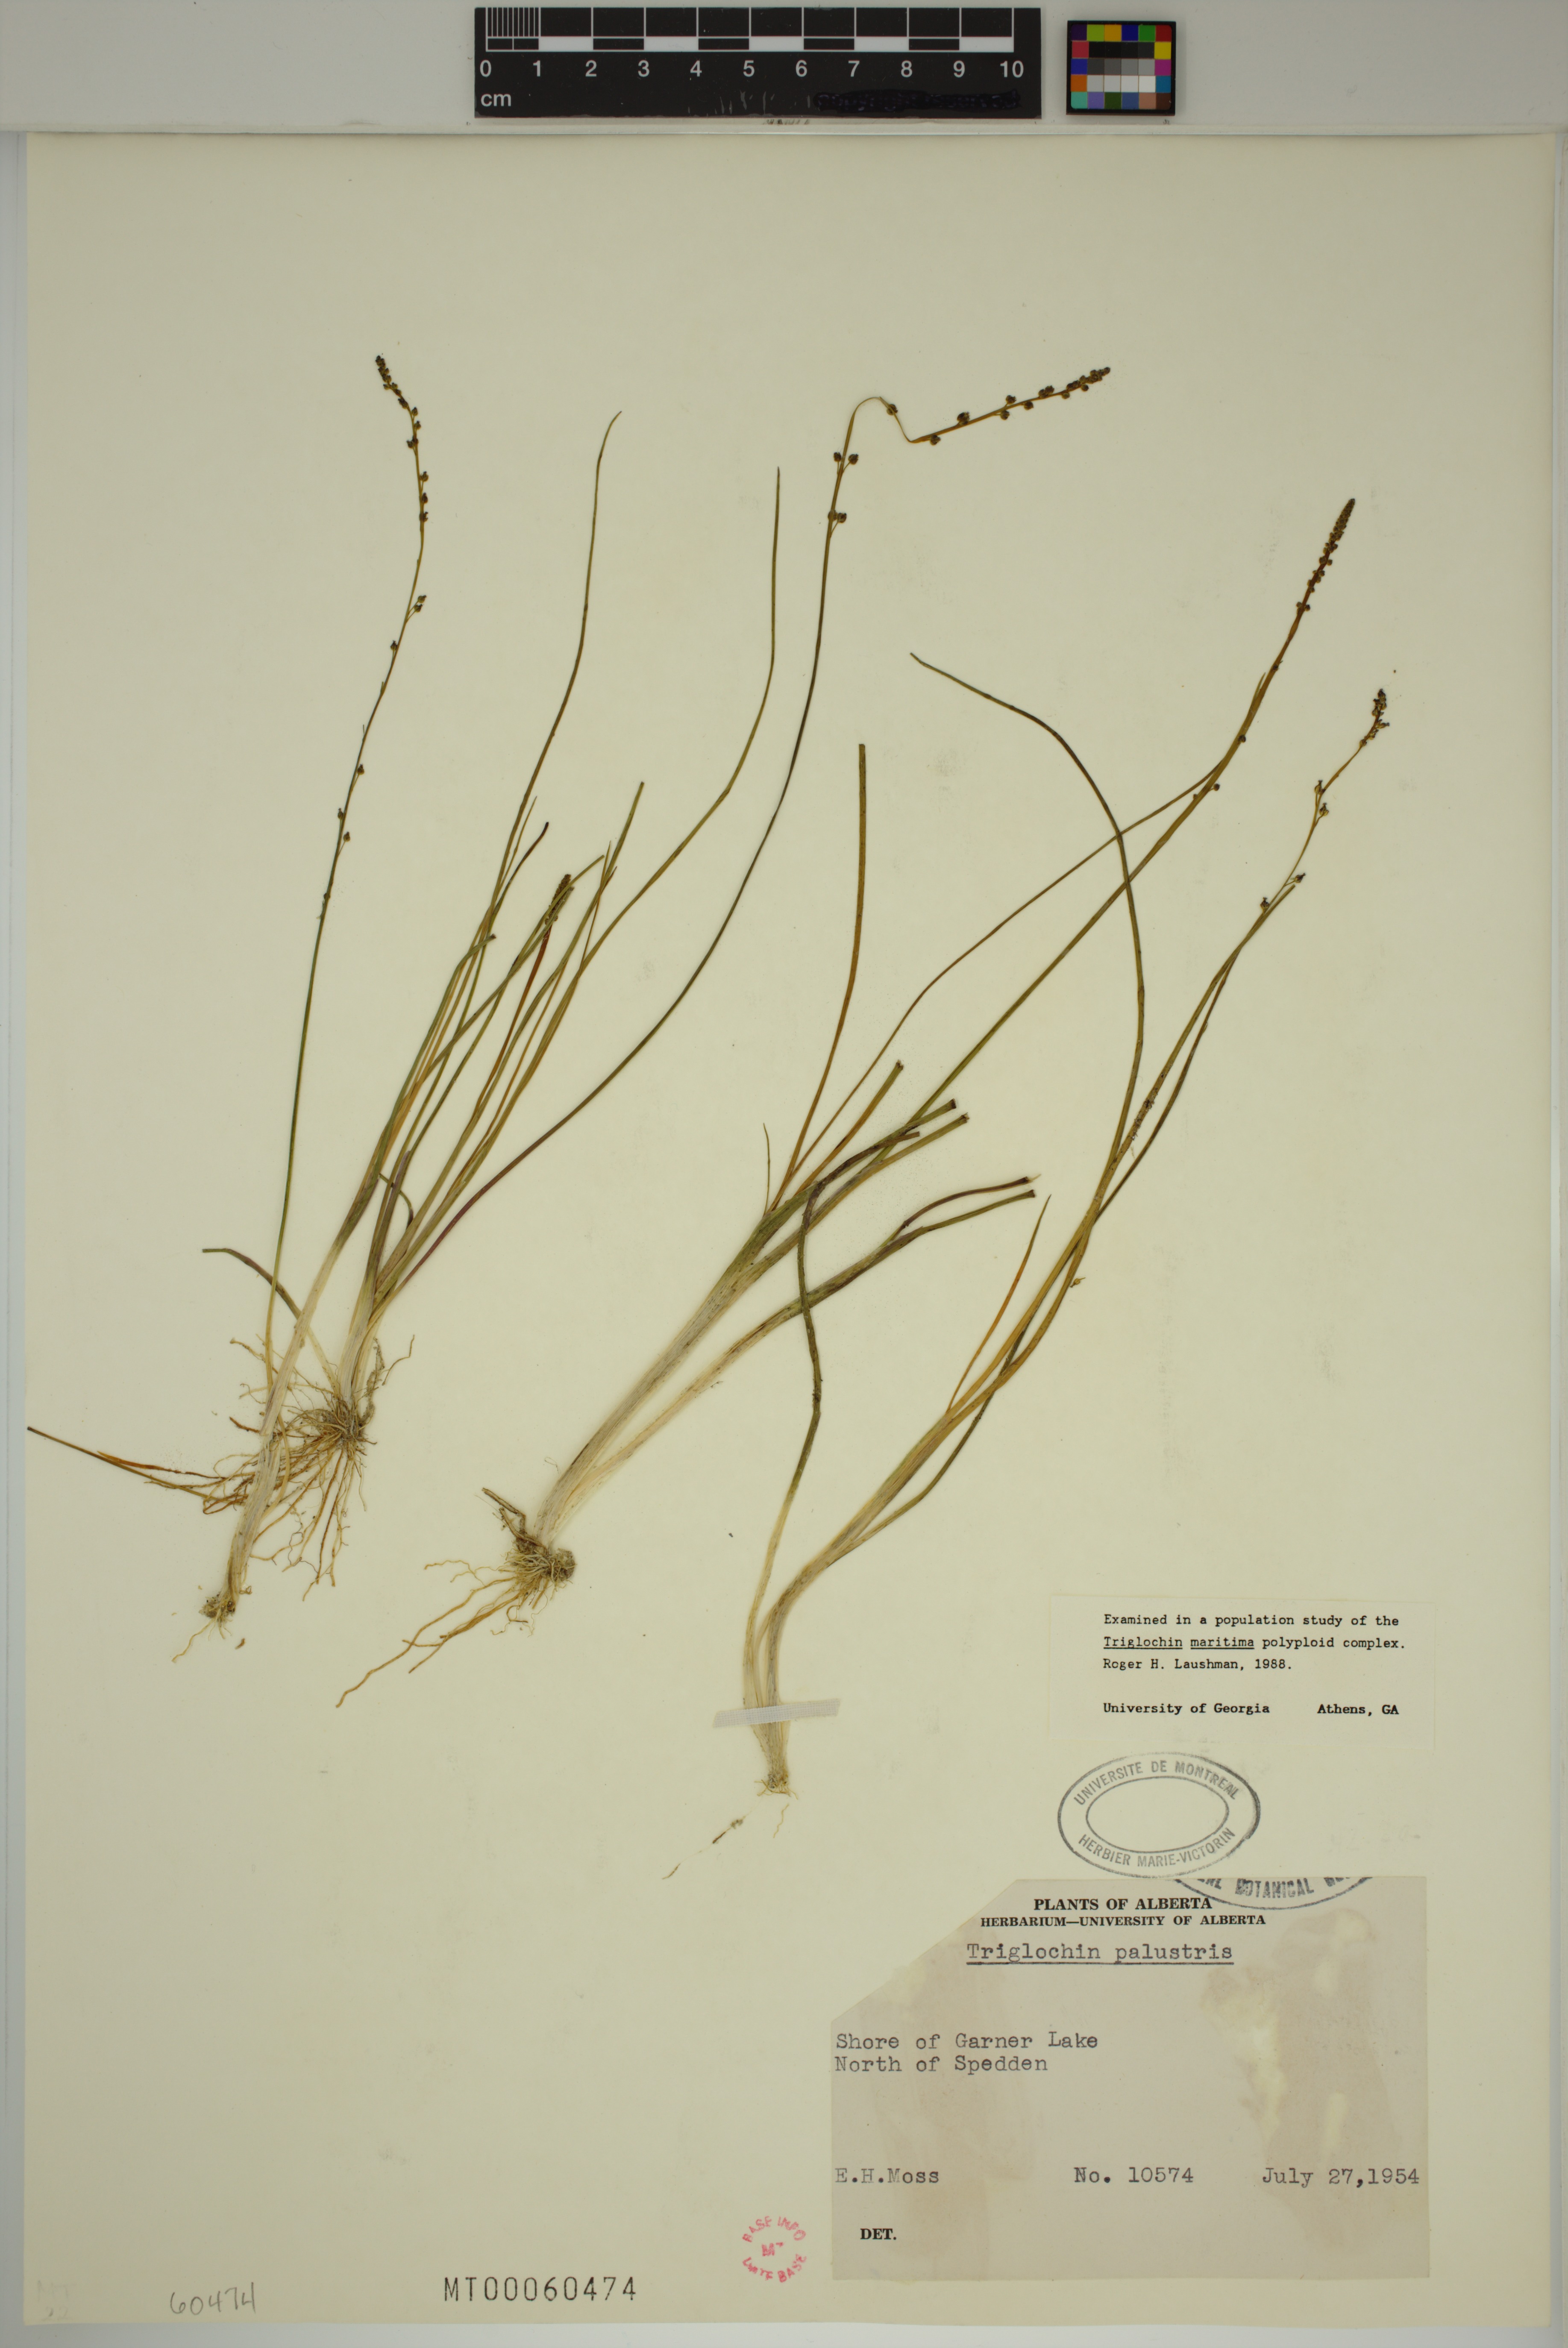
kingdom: Plantae
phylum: Tracheophyta
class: Liliopsida
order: Alismatales
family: Juncaginaceae
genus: Triglochin
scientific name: Triglochin palustris
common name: Marsh arrowgrass
